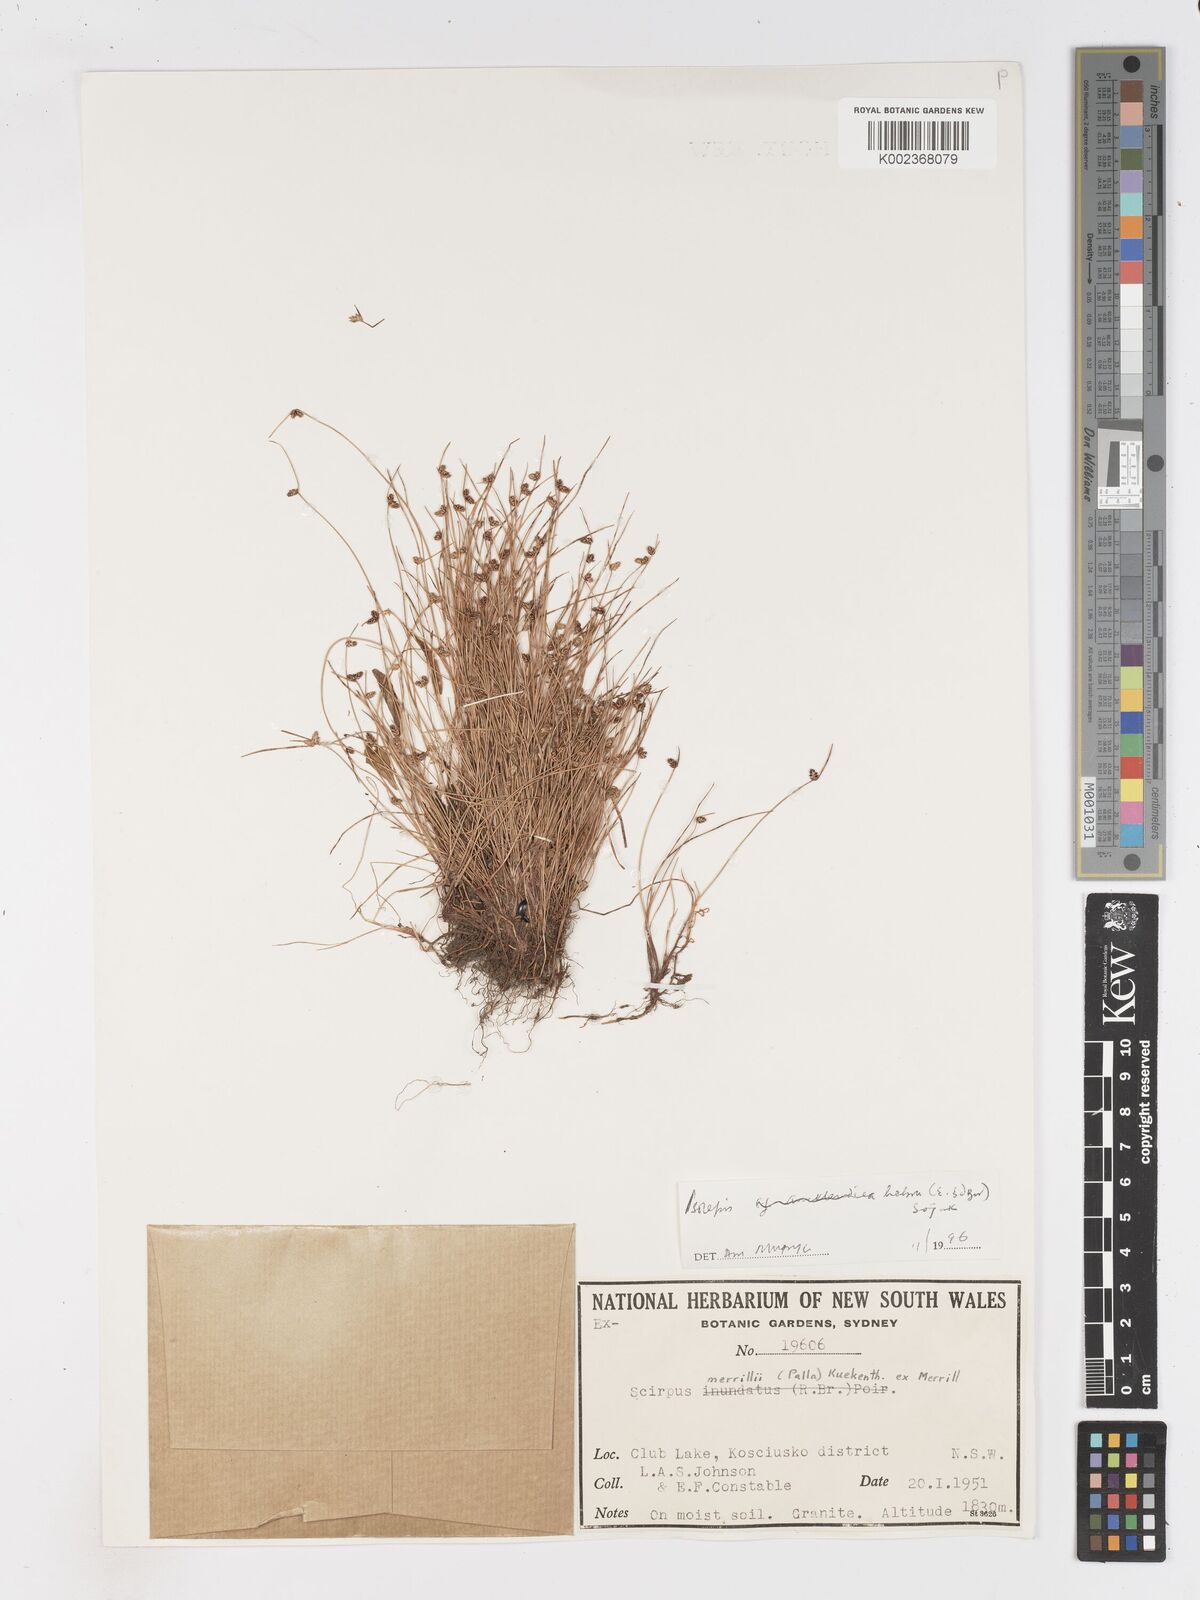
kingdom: Plantae
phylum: Tracheophyta
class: Liliopsida
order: Poales
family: Cyperaceae
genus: Isolepis
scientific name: Isolepis habra
